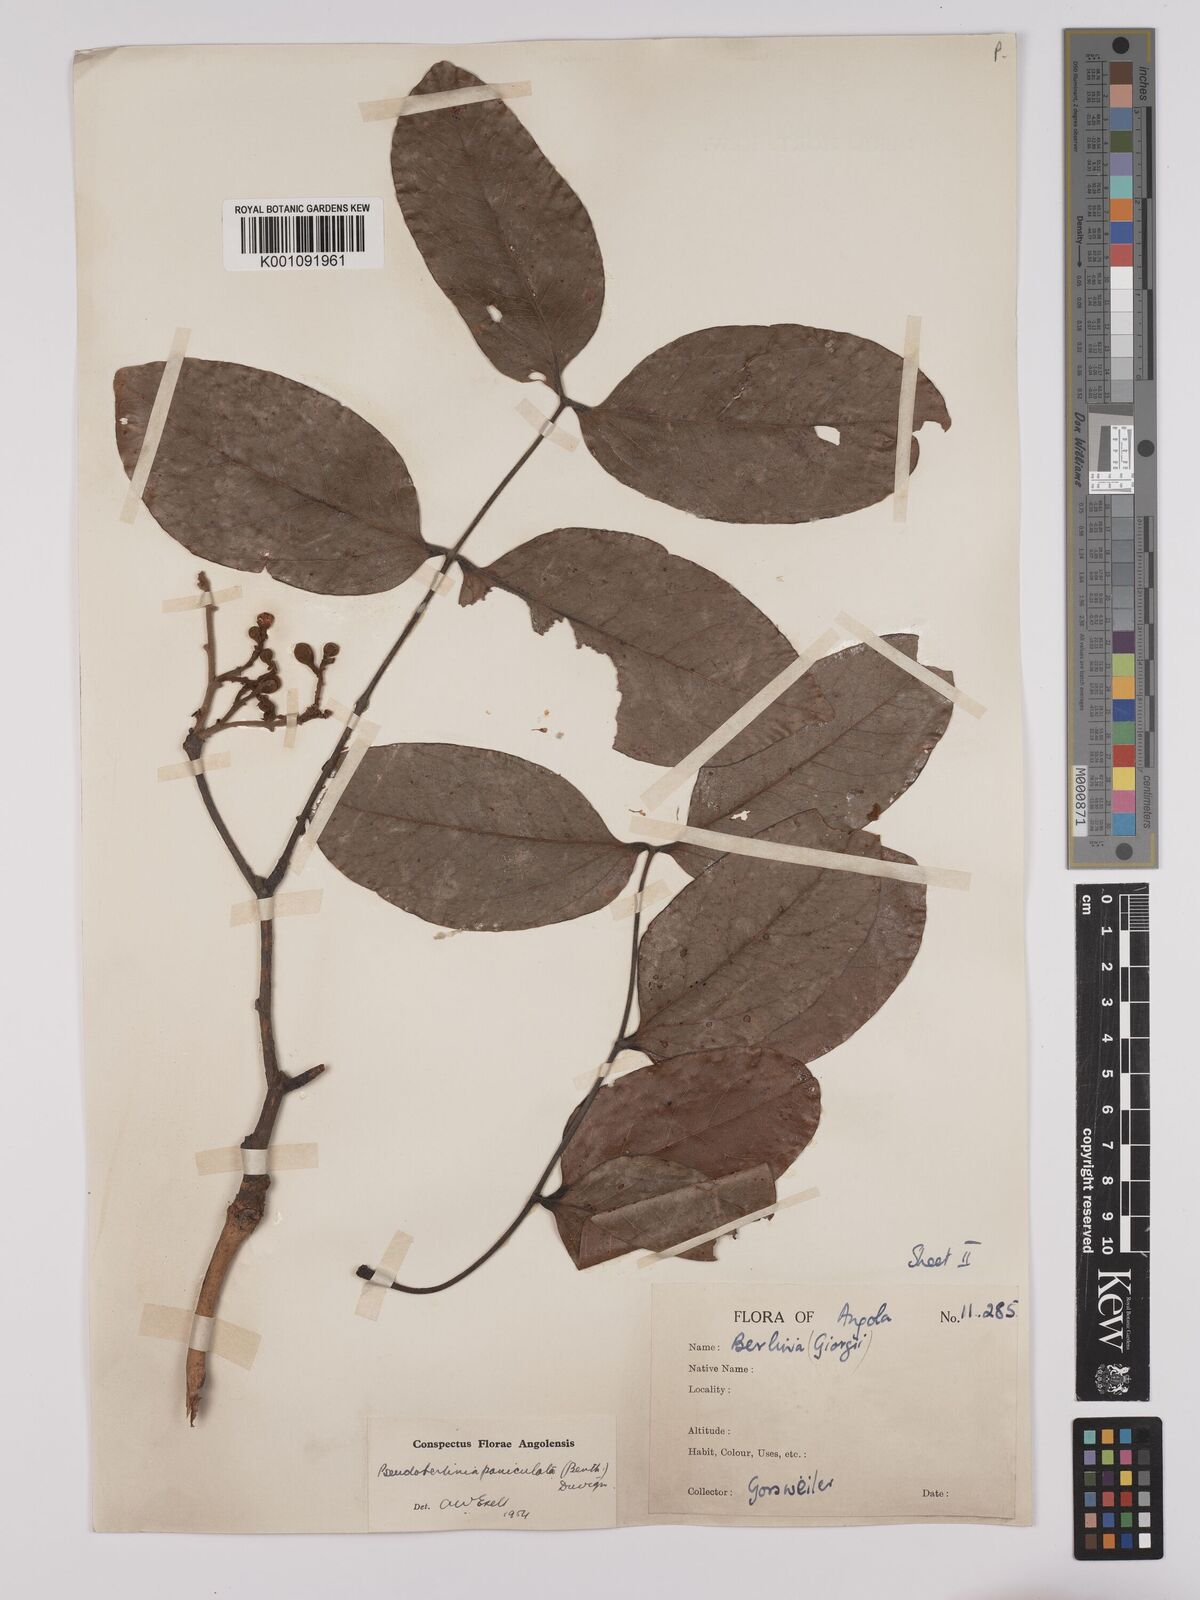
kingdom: Plantae
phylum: Tracheophyta
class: Magnoliopsida
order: Fabales
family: Fabaceae
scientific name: Fabaceae
